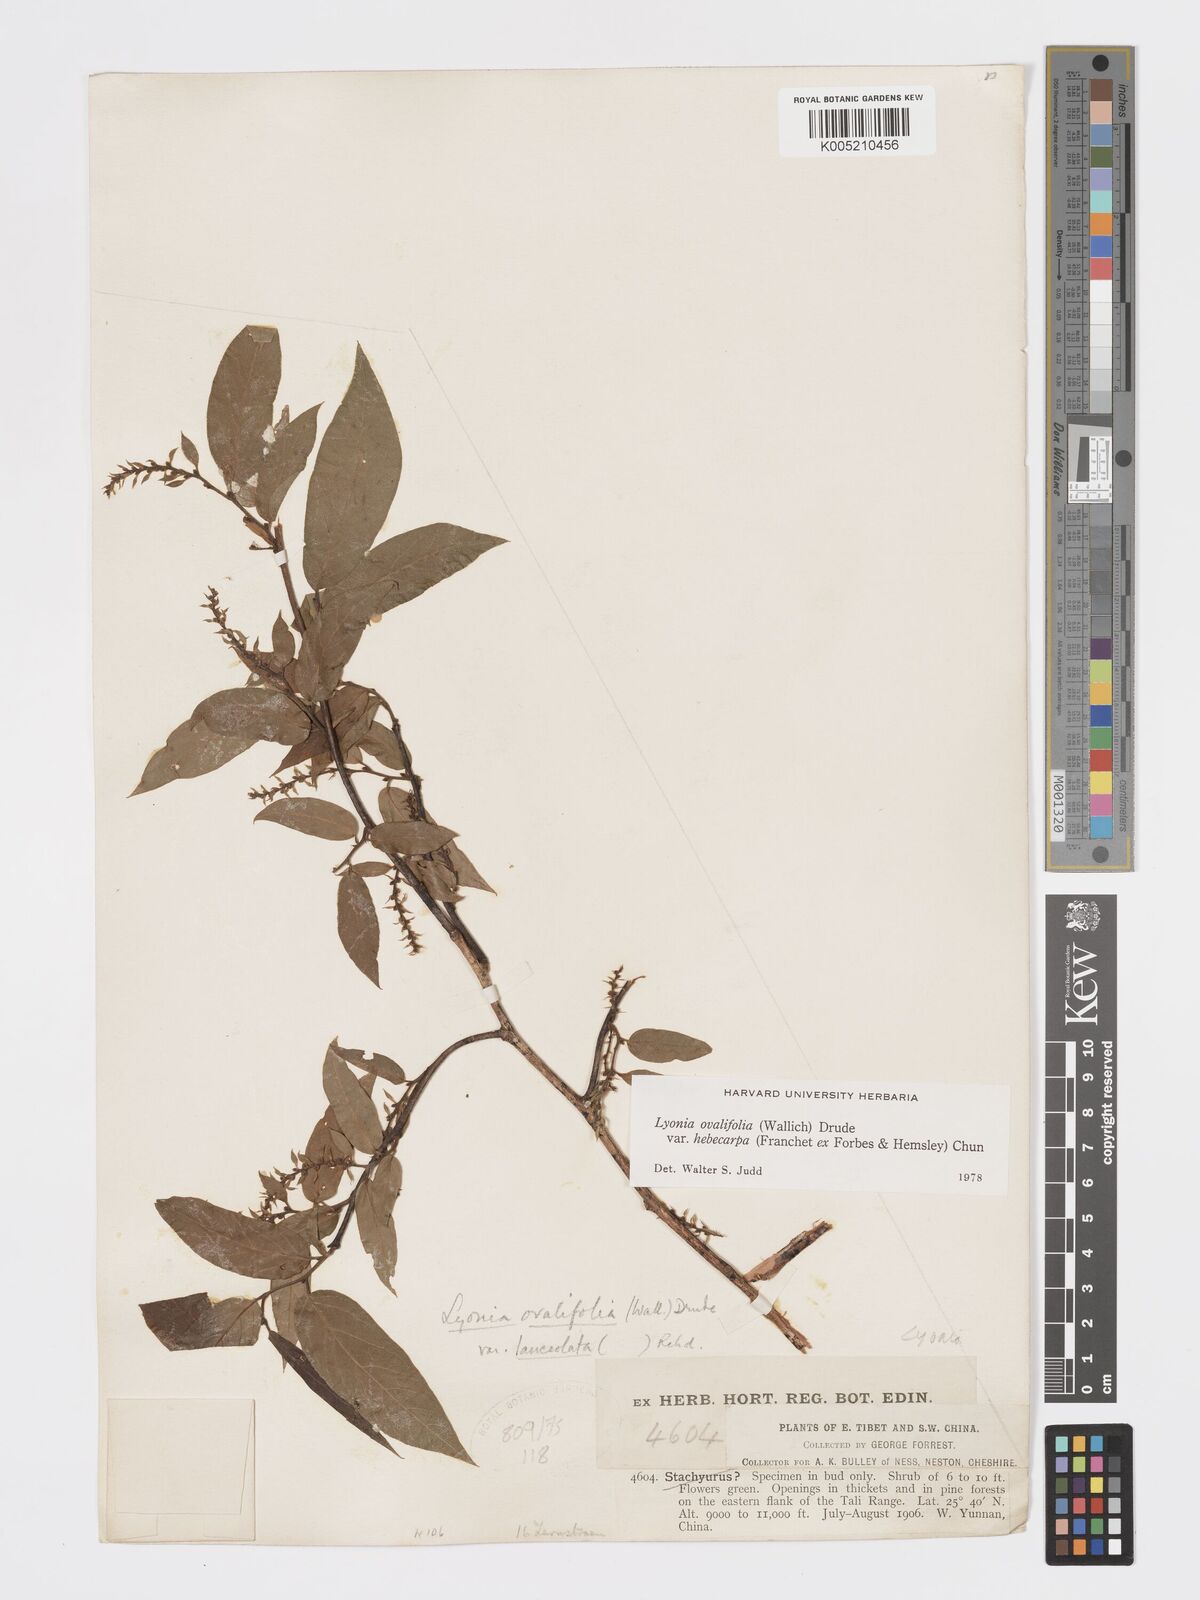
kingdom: Plantae
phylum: Tracheophyta
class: Magnoliopsida
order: Ericales
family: Ericaceae
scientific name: Ericaceae
